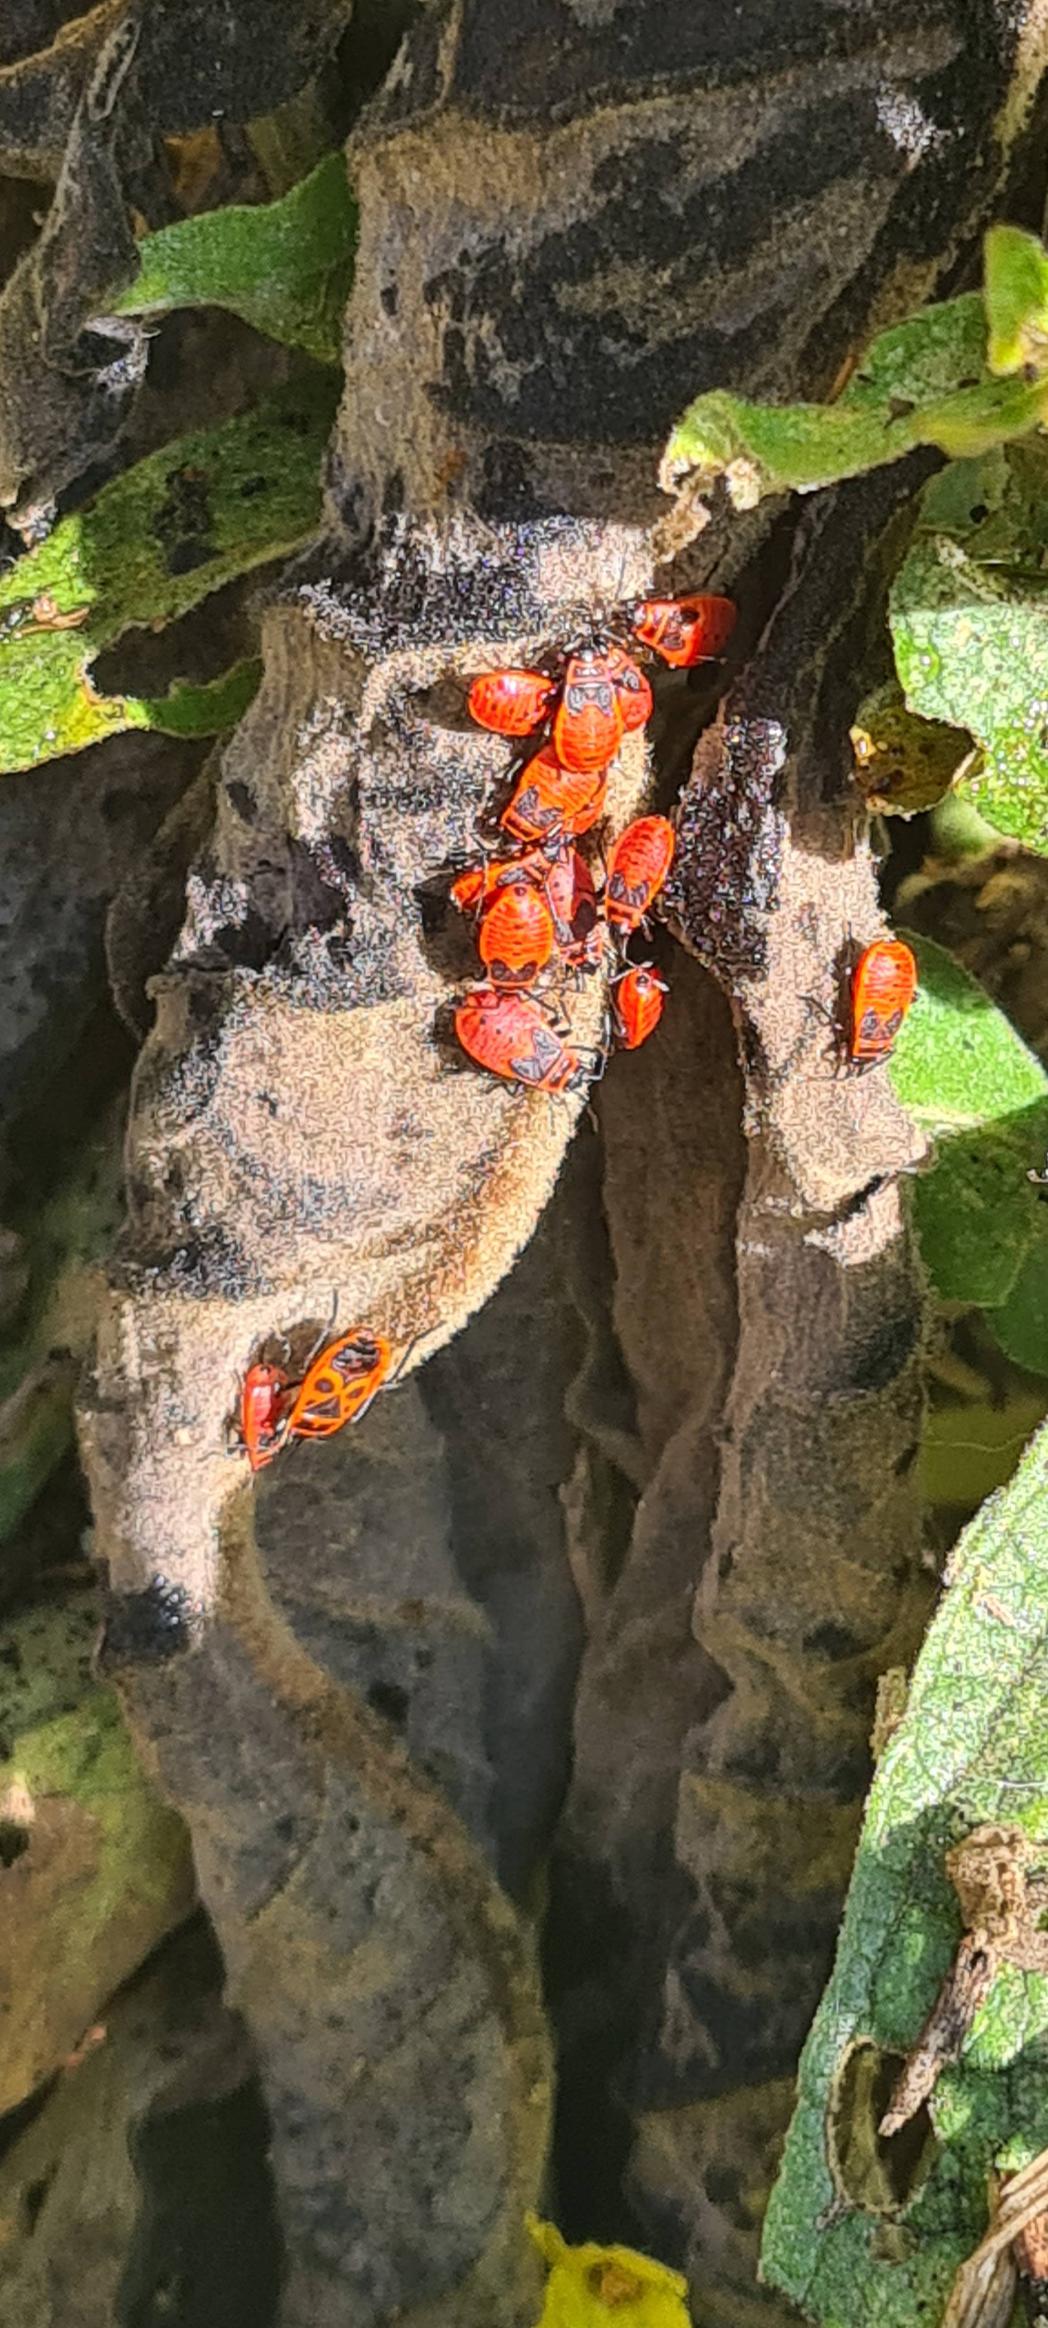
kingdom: Animalia
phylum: Arthropoda
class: Insecta
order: Hemiptera
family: Pyrrhocoridae
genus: Pyrrhocoris
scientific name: Pyrrhocoris apterus
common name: Ildtæge
